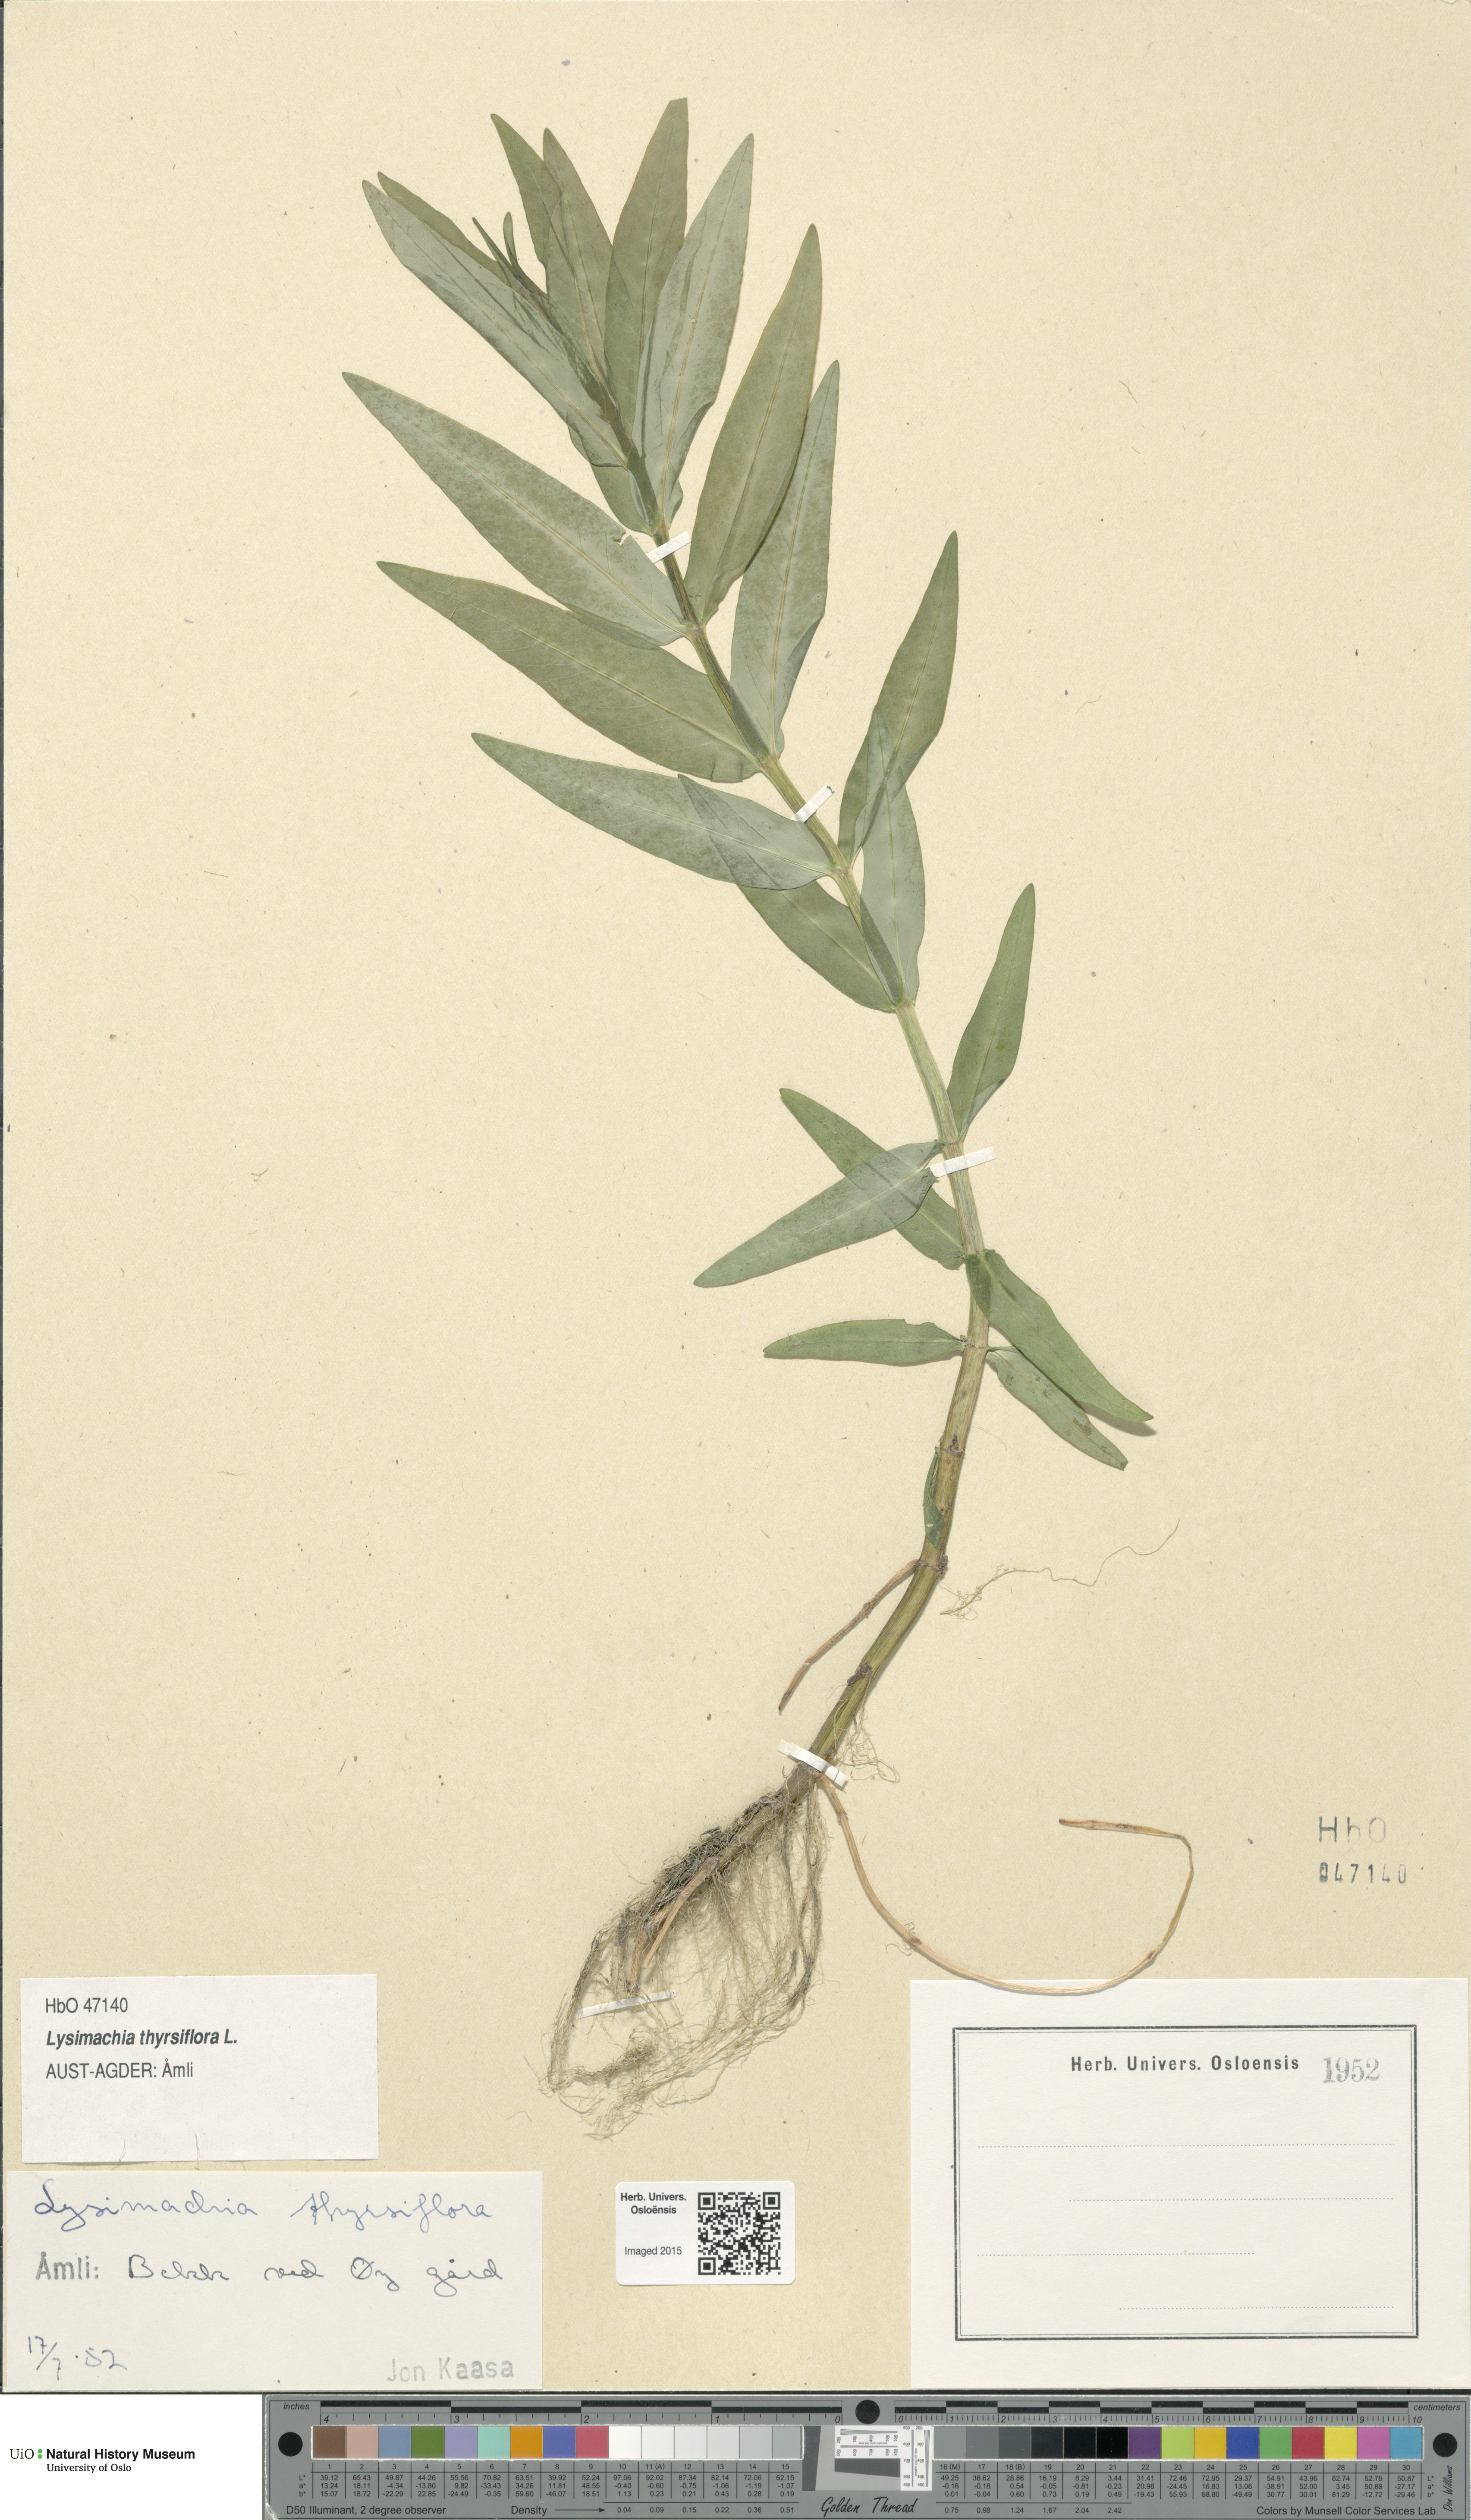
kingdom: Plantae
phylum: Tracheophyta
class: Magnoliopsida
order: Ericales
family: Primulaceae
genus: Lysimachia
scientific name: Lysimachia thyrsiflora
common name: Tufted loosestrife
